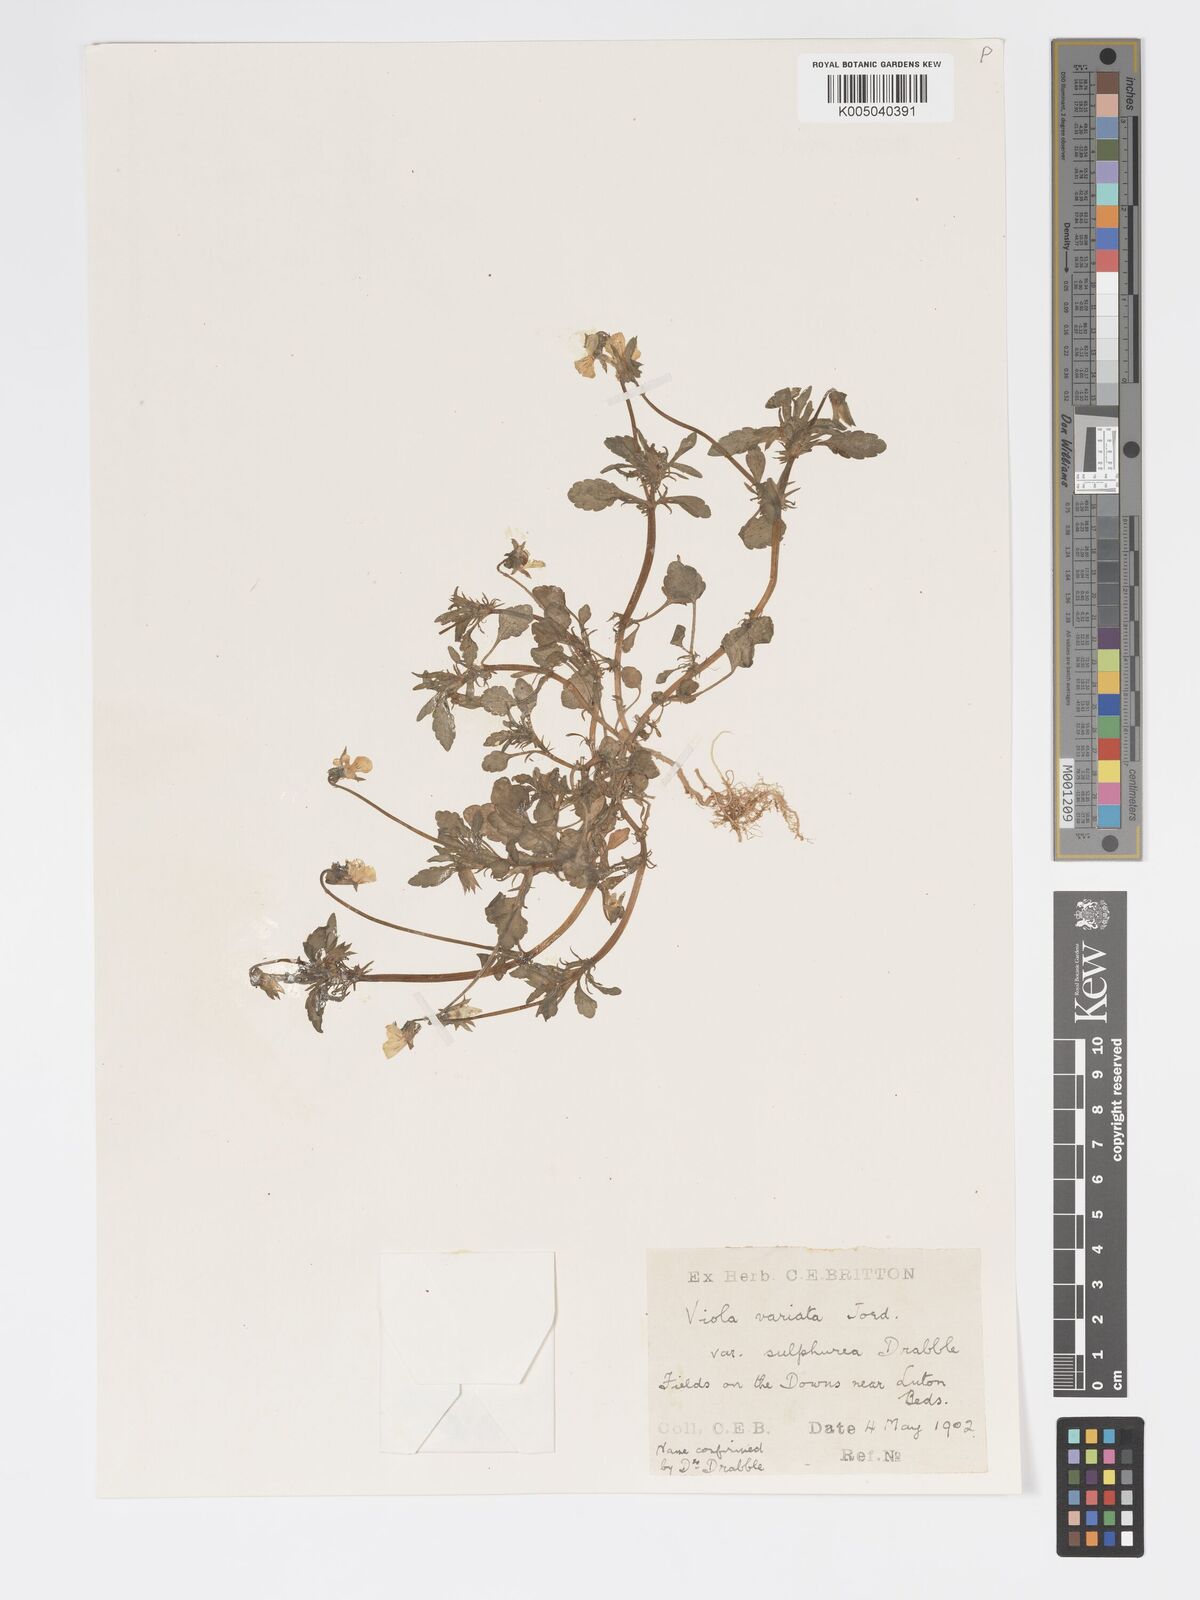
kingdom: Plantae
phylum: Tracheophyta
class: Magnoliopsida
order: Malpighiales
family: Violaceae
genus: Viola
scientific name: Viola arvensis
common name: Field pansy
